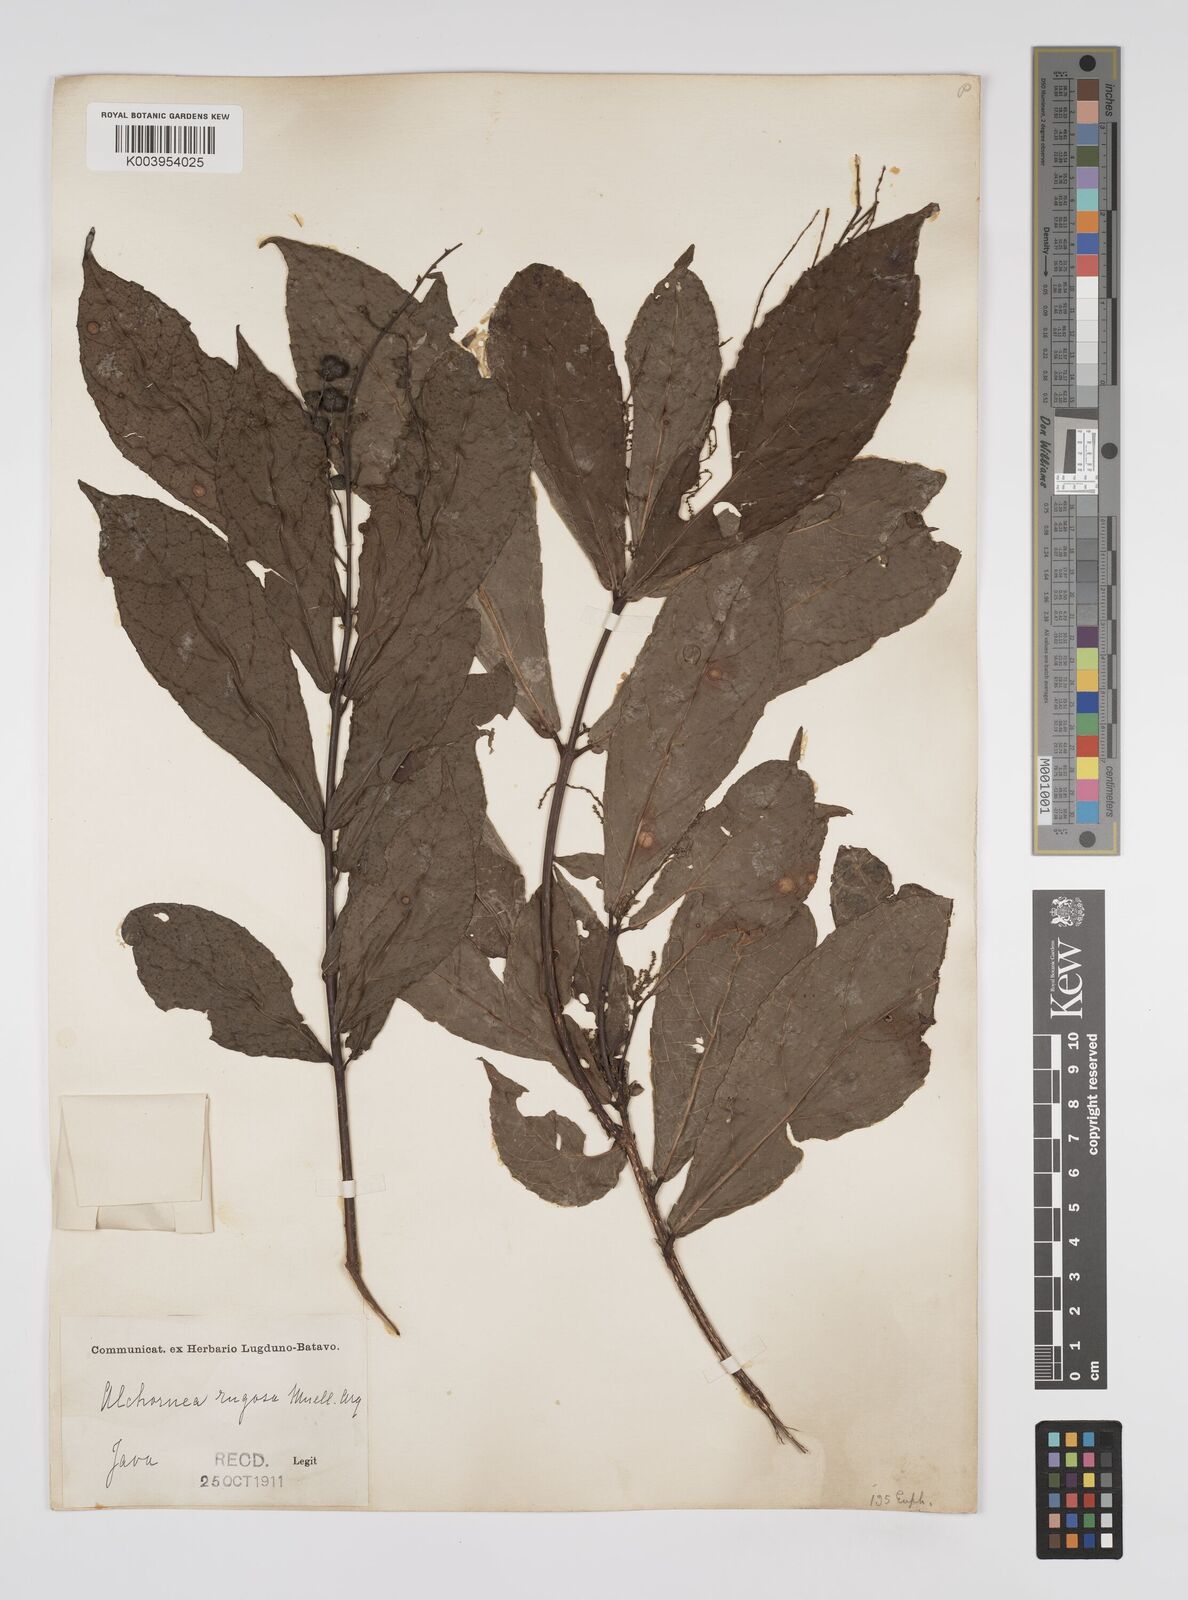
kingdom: Plantae
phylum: Tracheophyta
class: Magnoliopsida
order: Malpighiales
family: Euphorbiaceae
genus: Alchornea
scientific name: Alchornea rugosa
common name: Alchorntree
